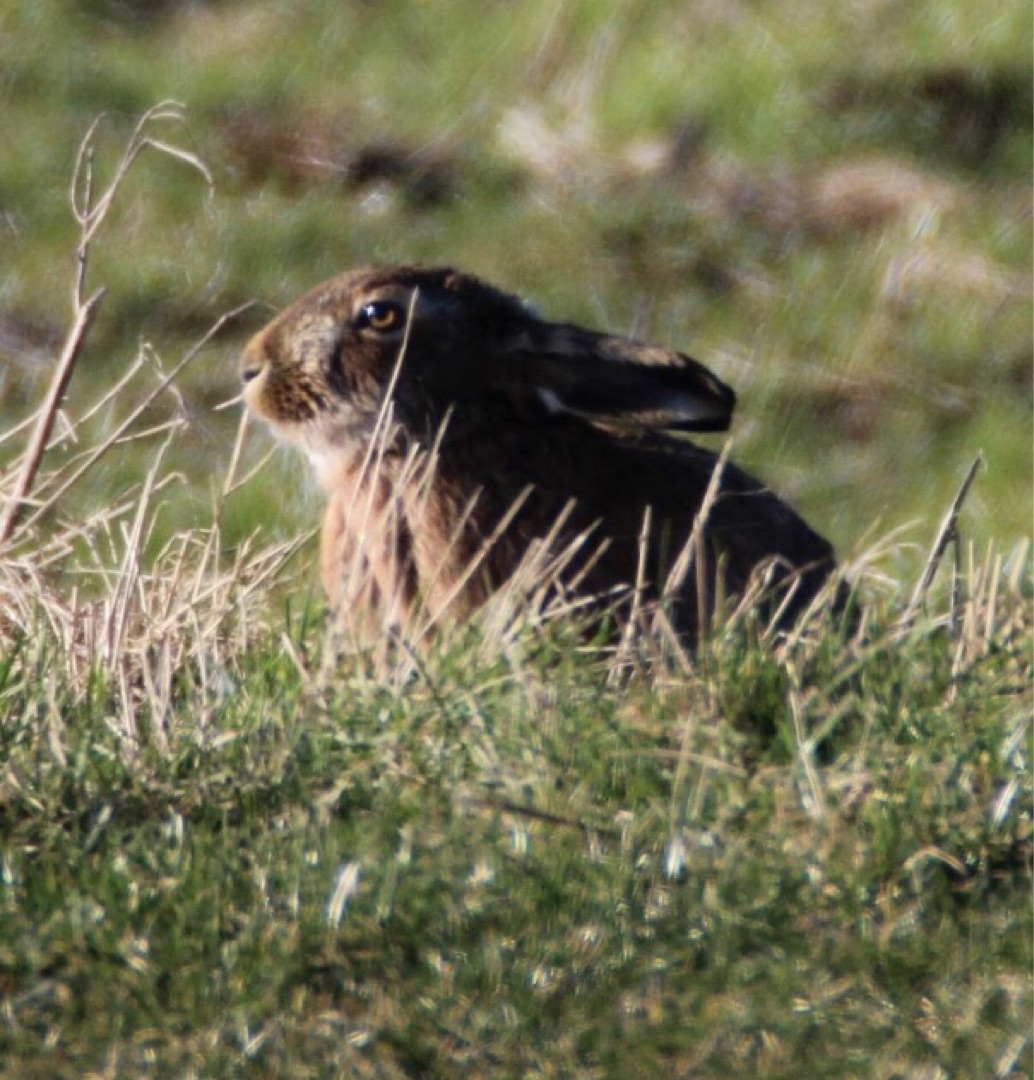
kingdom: Animalia
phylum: Chordata
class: Mammalia
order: Lagomorpha
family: Leporidae
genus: Lepus
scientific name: Lepus europaeus
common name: Hare
